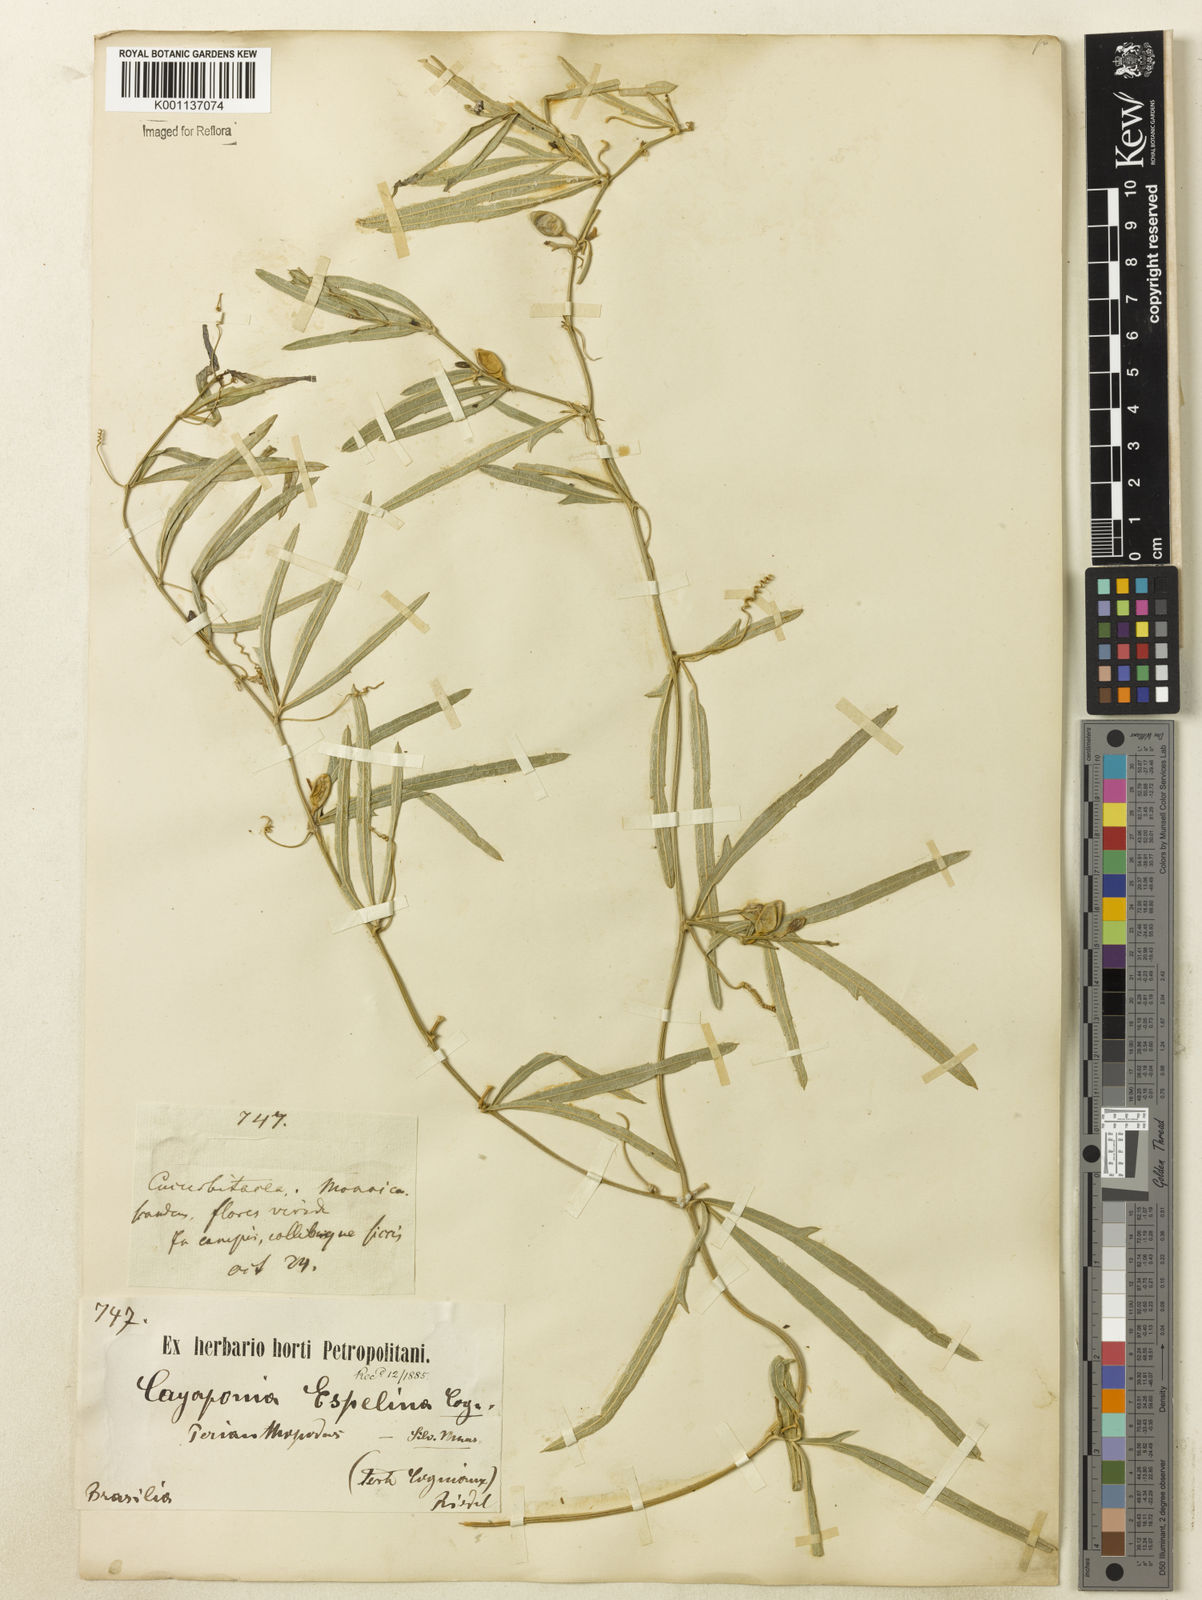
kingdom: Plantae
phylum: Tracheophyta
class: Magnoliopsida
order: Cucurbitales
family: Cucurbitaceae
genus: Cayaponia
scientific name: Cayaponia espelina
